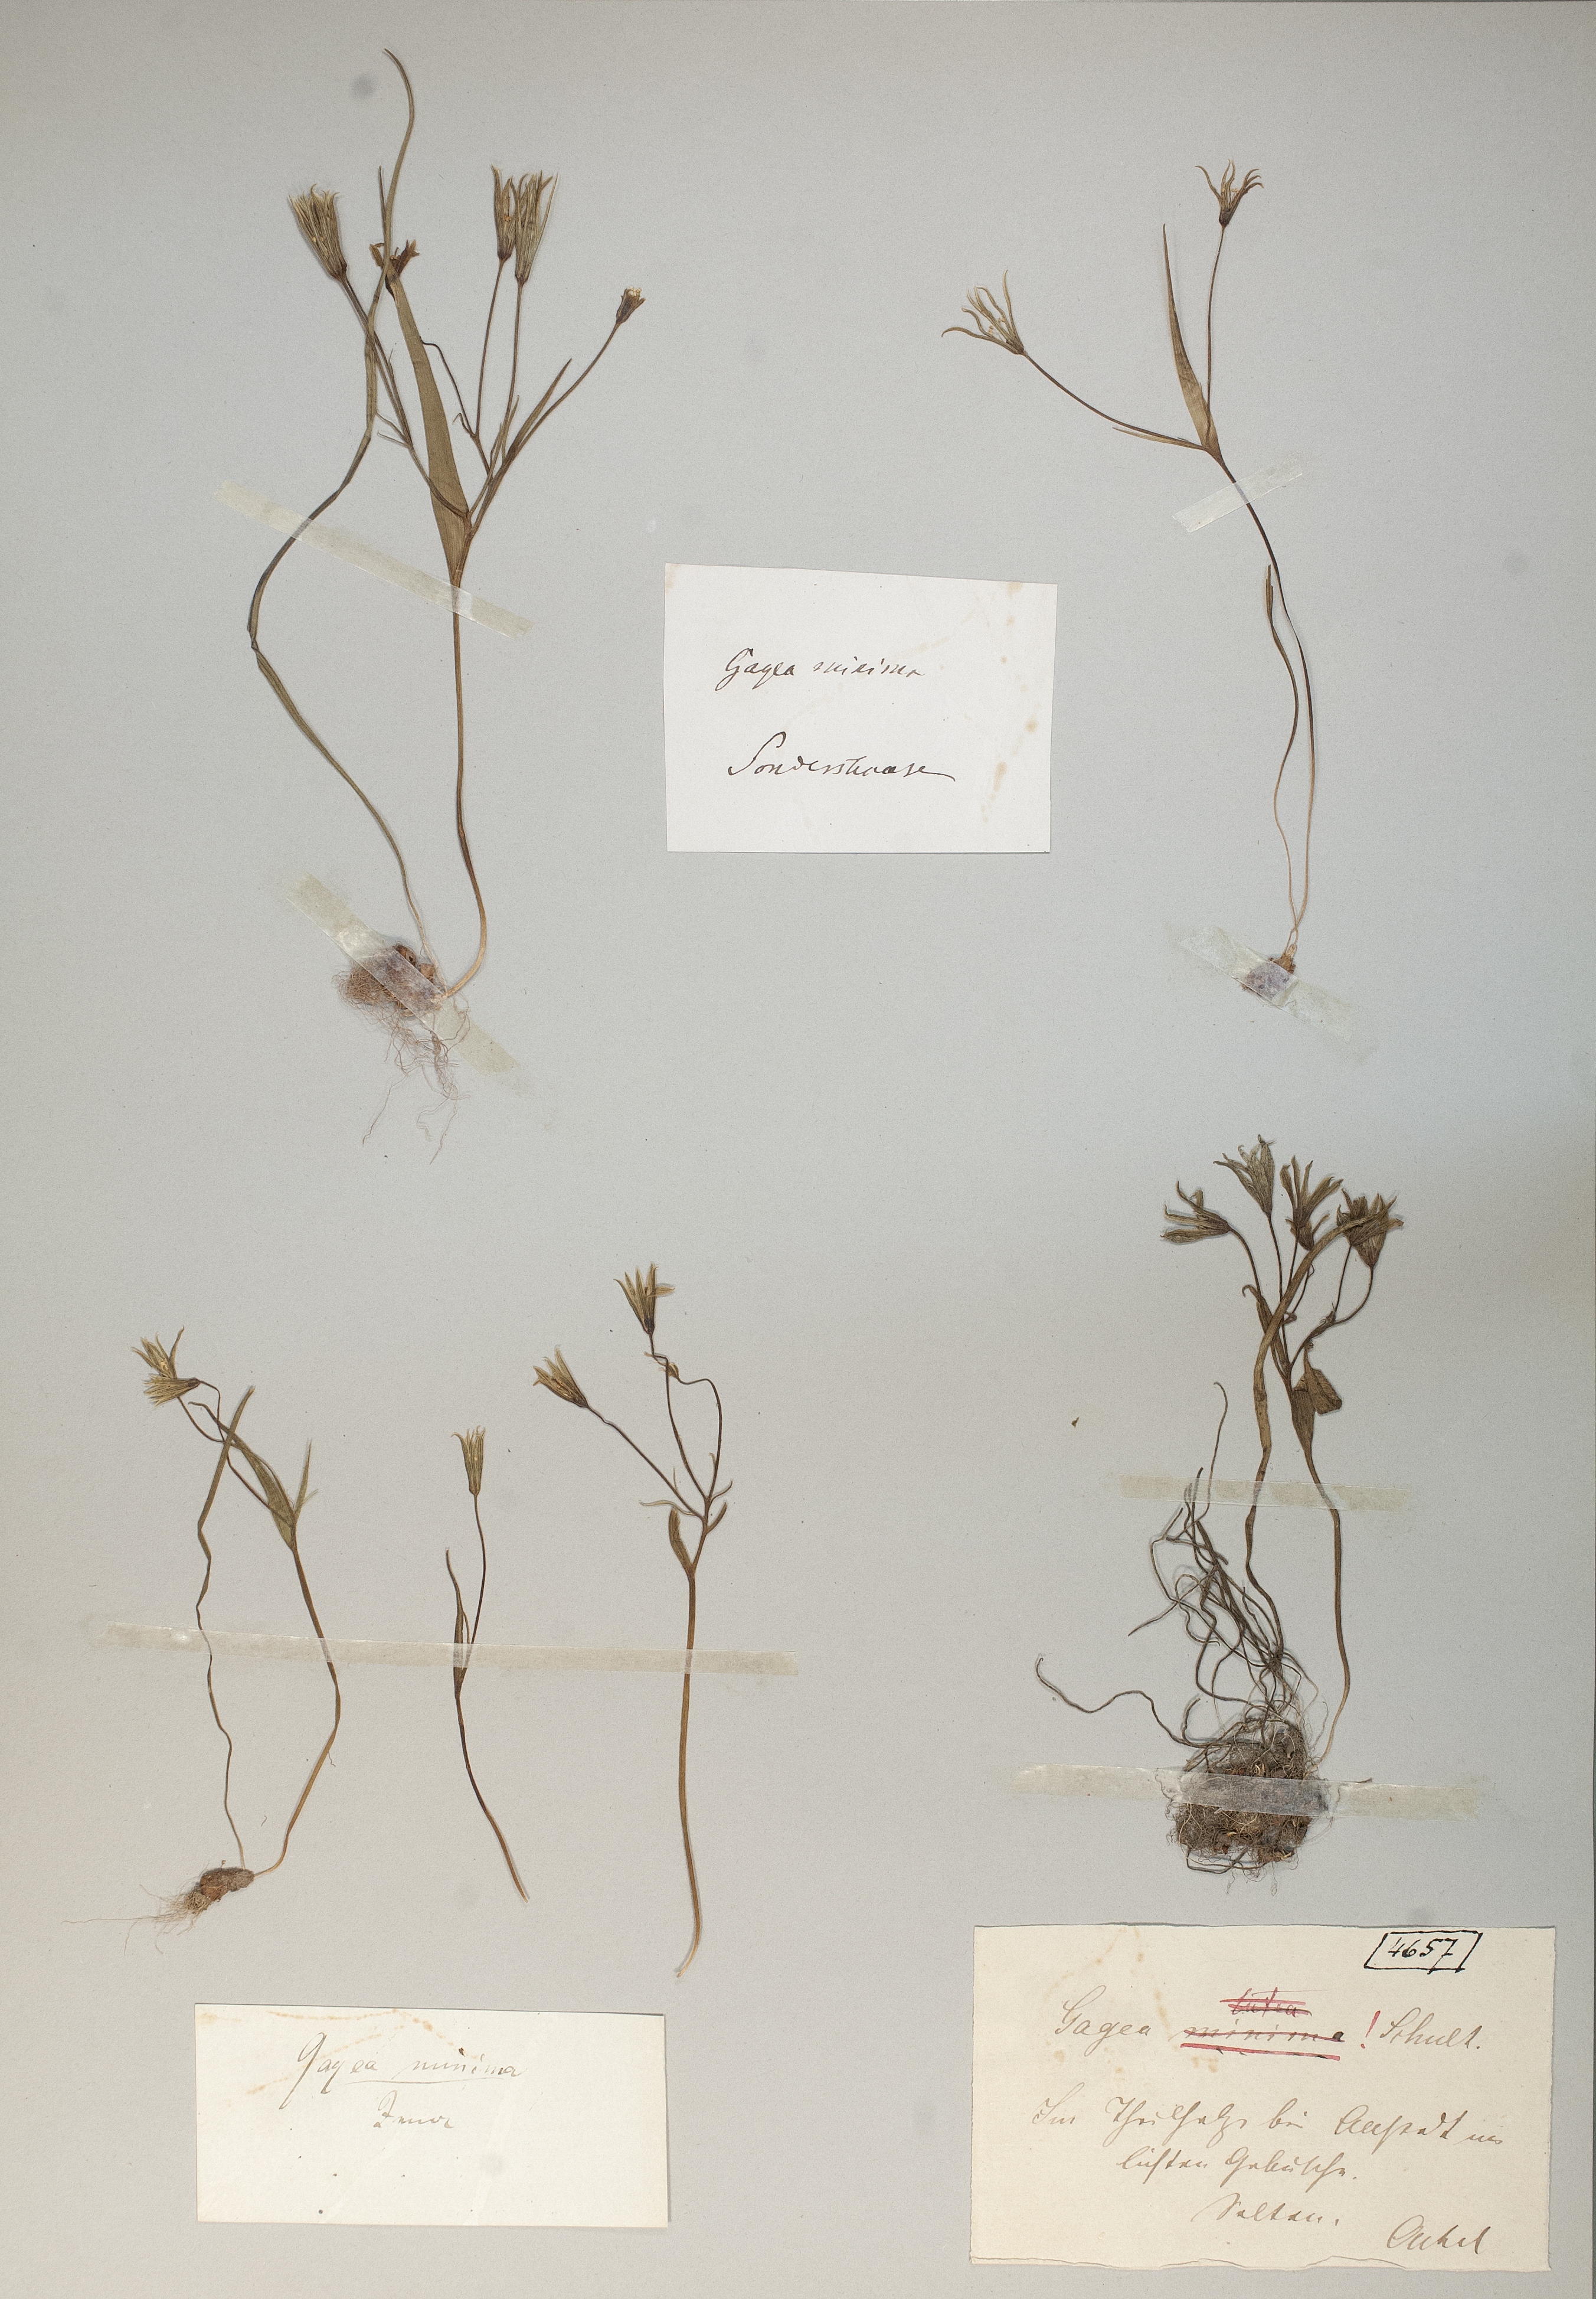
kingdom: Plantae
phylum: Tracheophyta
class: Liliopsida
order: Liliales
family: Liliaceae
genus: Gagea
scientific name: Gagea minima
